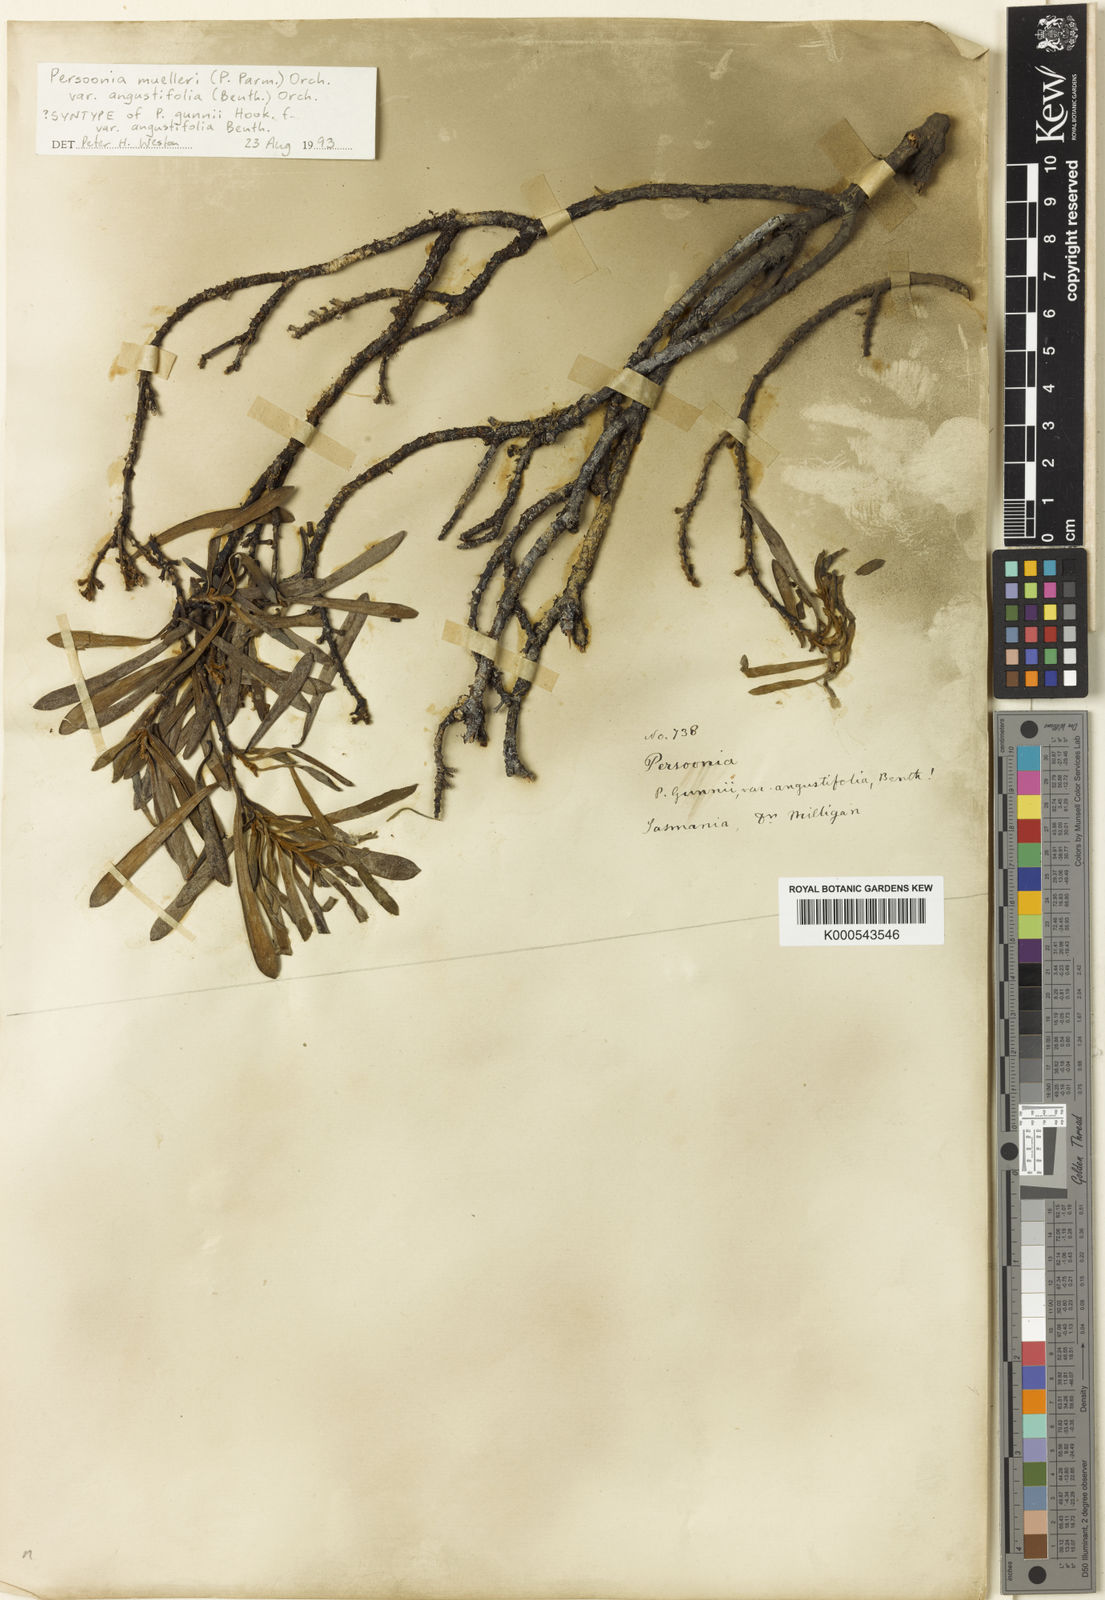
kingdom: Plantae
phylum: Tracheophyta
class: Magnoliopsida
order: Proteales
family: Proteaceae
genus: Persoonia
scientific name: Persoonia
